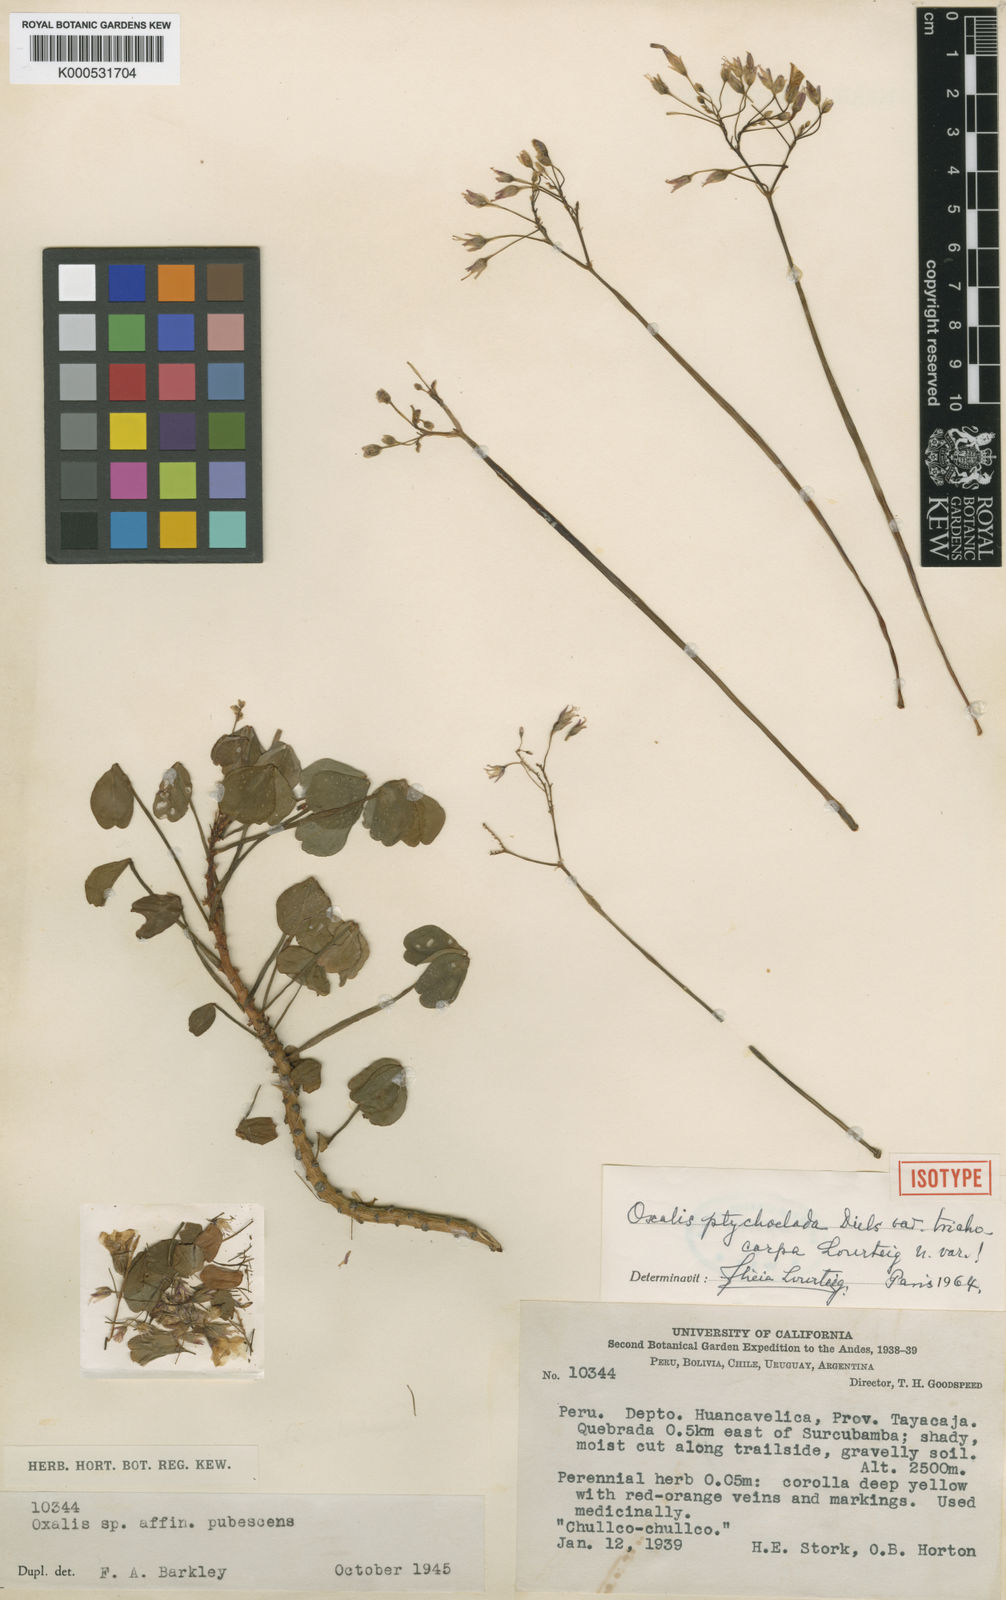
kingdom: Plantae
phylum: Tracheophyta
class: Magnoliopsida
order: Oxalidales
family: Oxalidaceae
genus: Oxalis
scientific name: Oxalis ptychoclada
